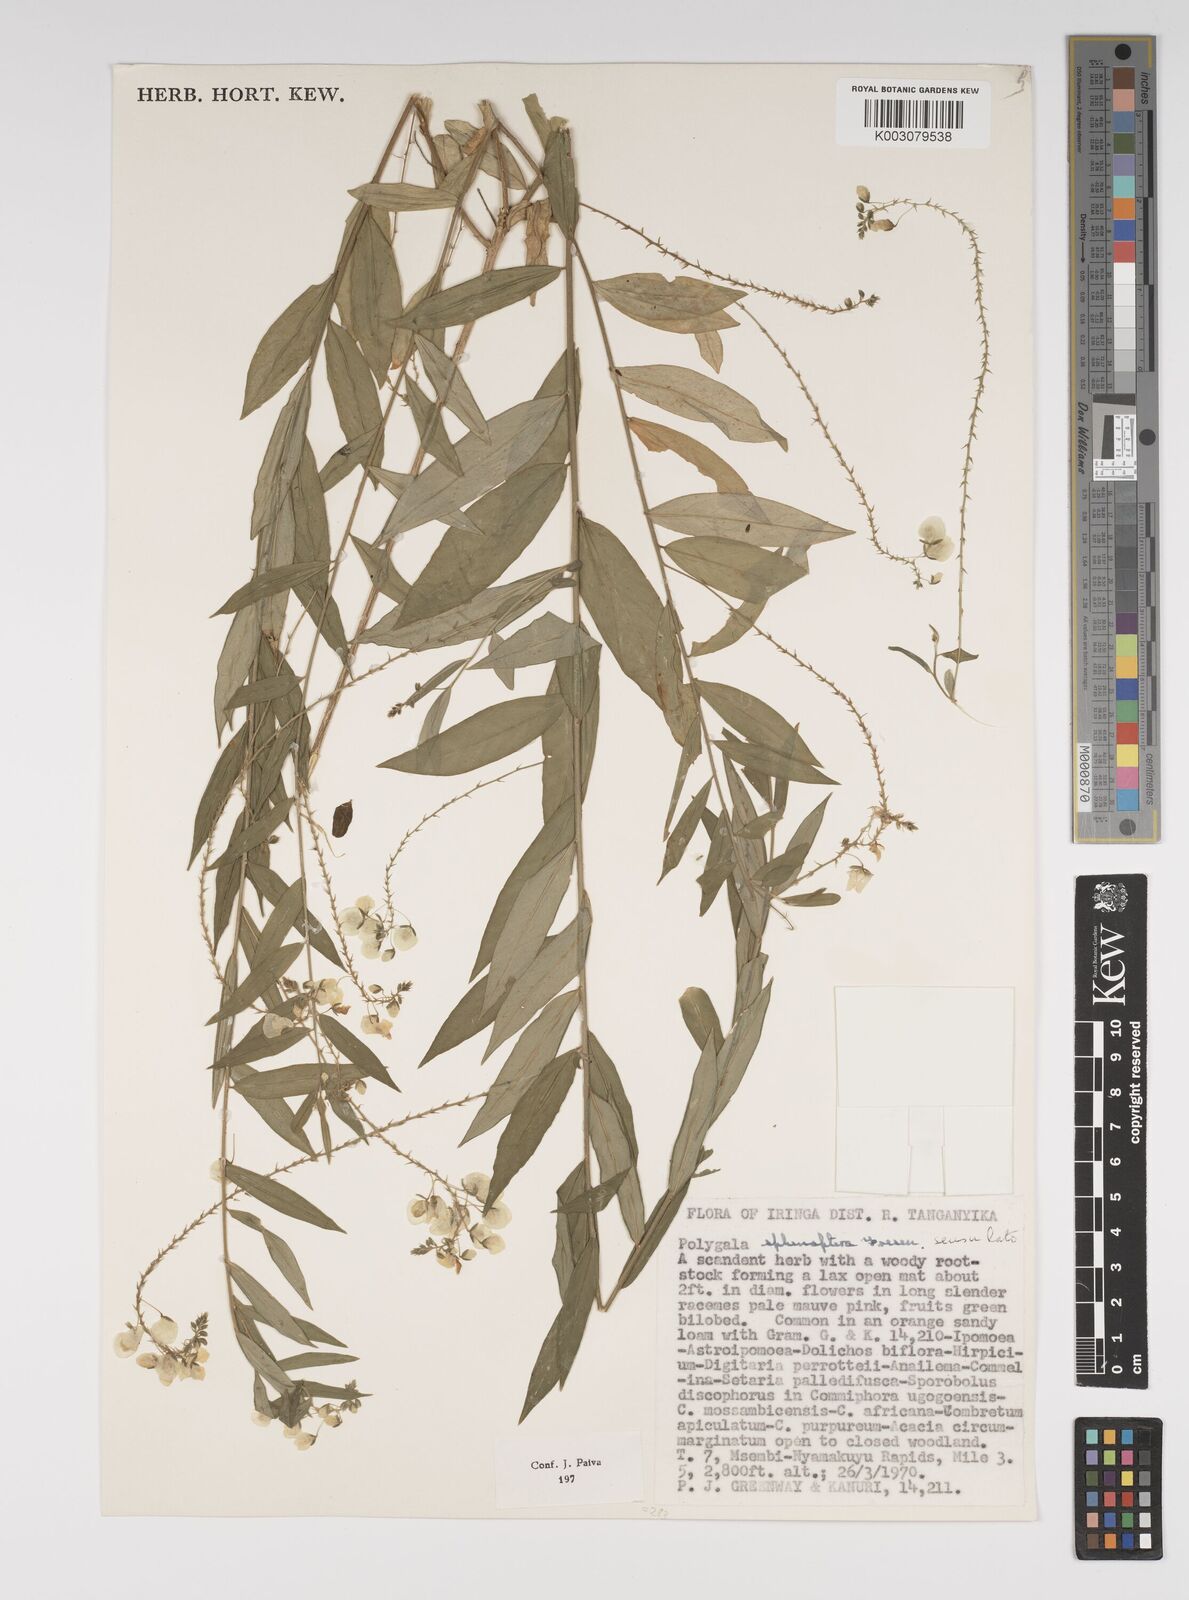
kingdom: Plantae
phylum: Tracheophyta
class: Magnoliopsida
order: Fabales
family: Polygalaceae
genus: Polygala
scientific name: Polygala sphenoptera
